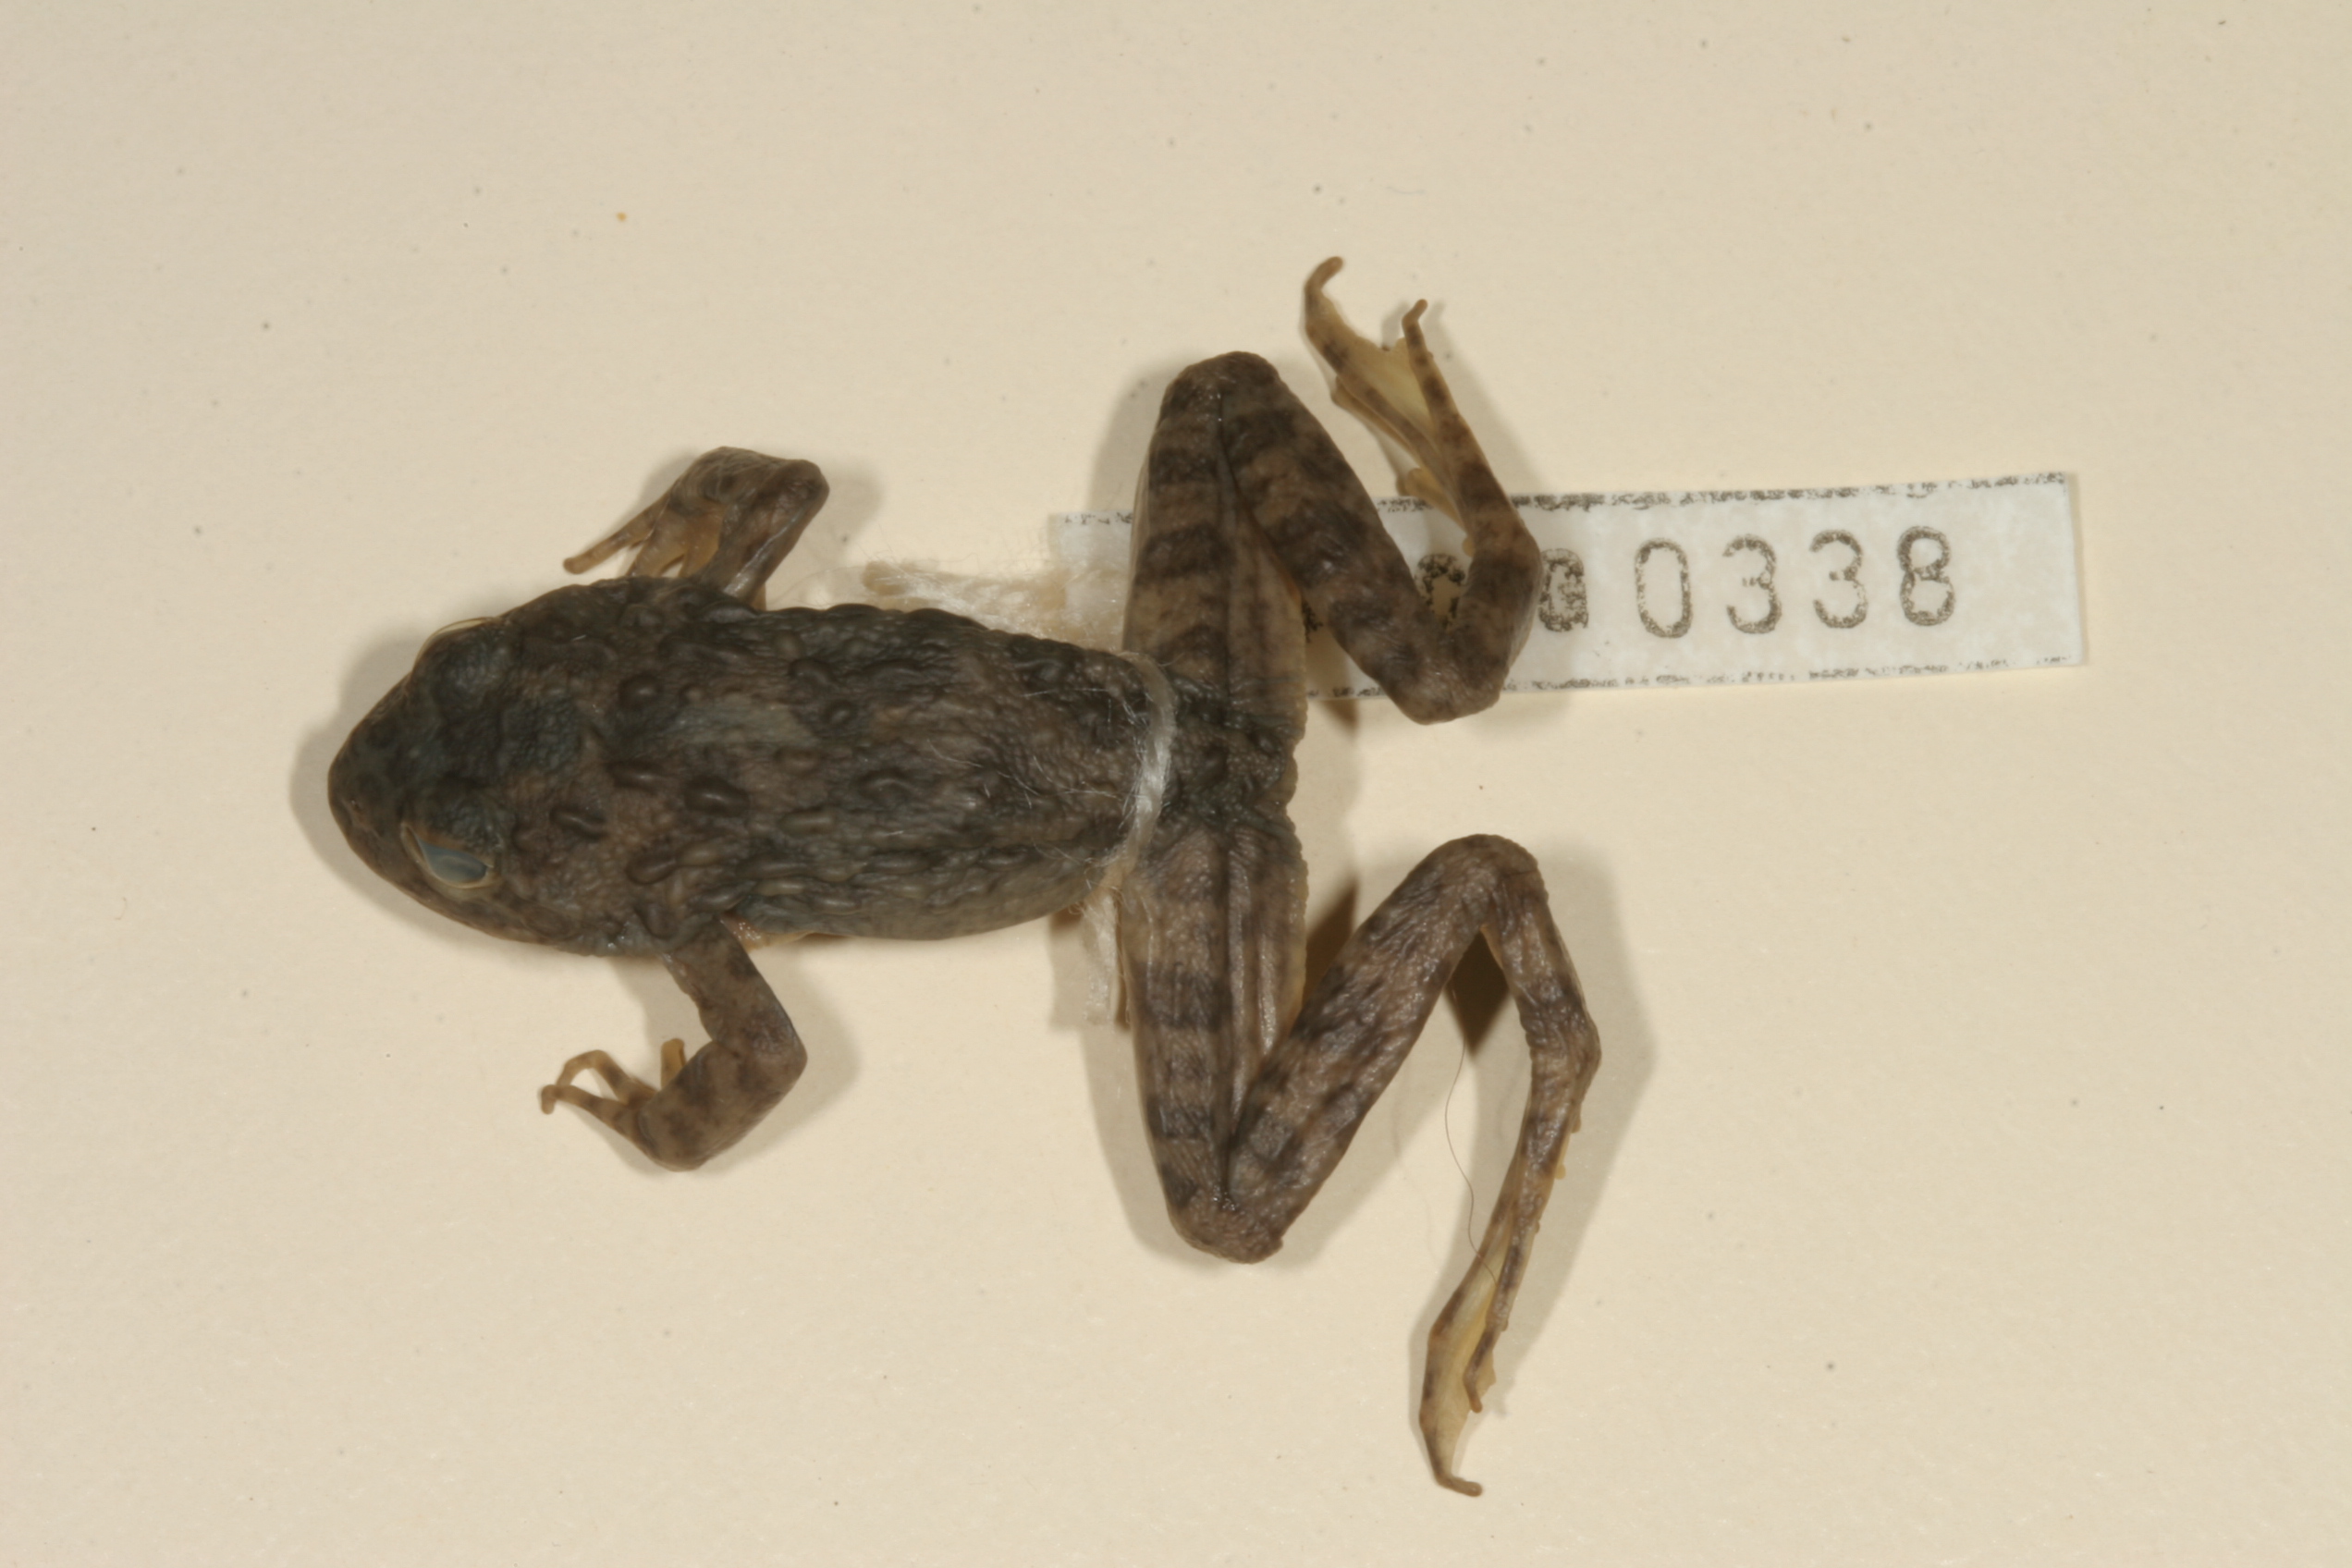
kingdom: Animalia
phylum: Chordata
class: Amphibia
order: Anura
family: Pyxicephalidae
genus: Amietia
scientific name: Amietia vertebralis
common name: Drakensberg stream frog
